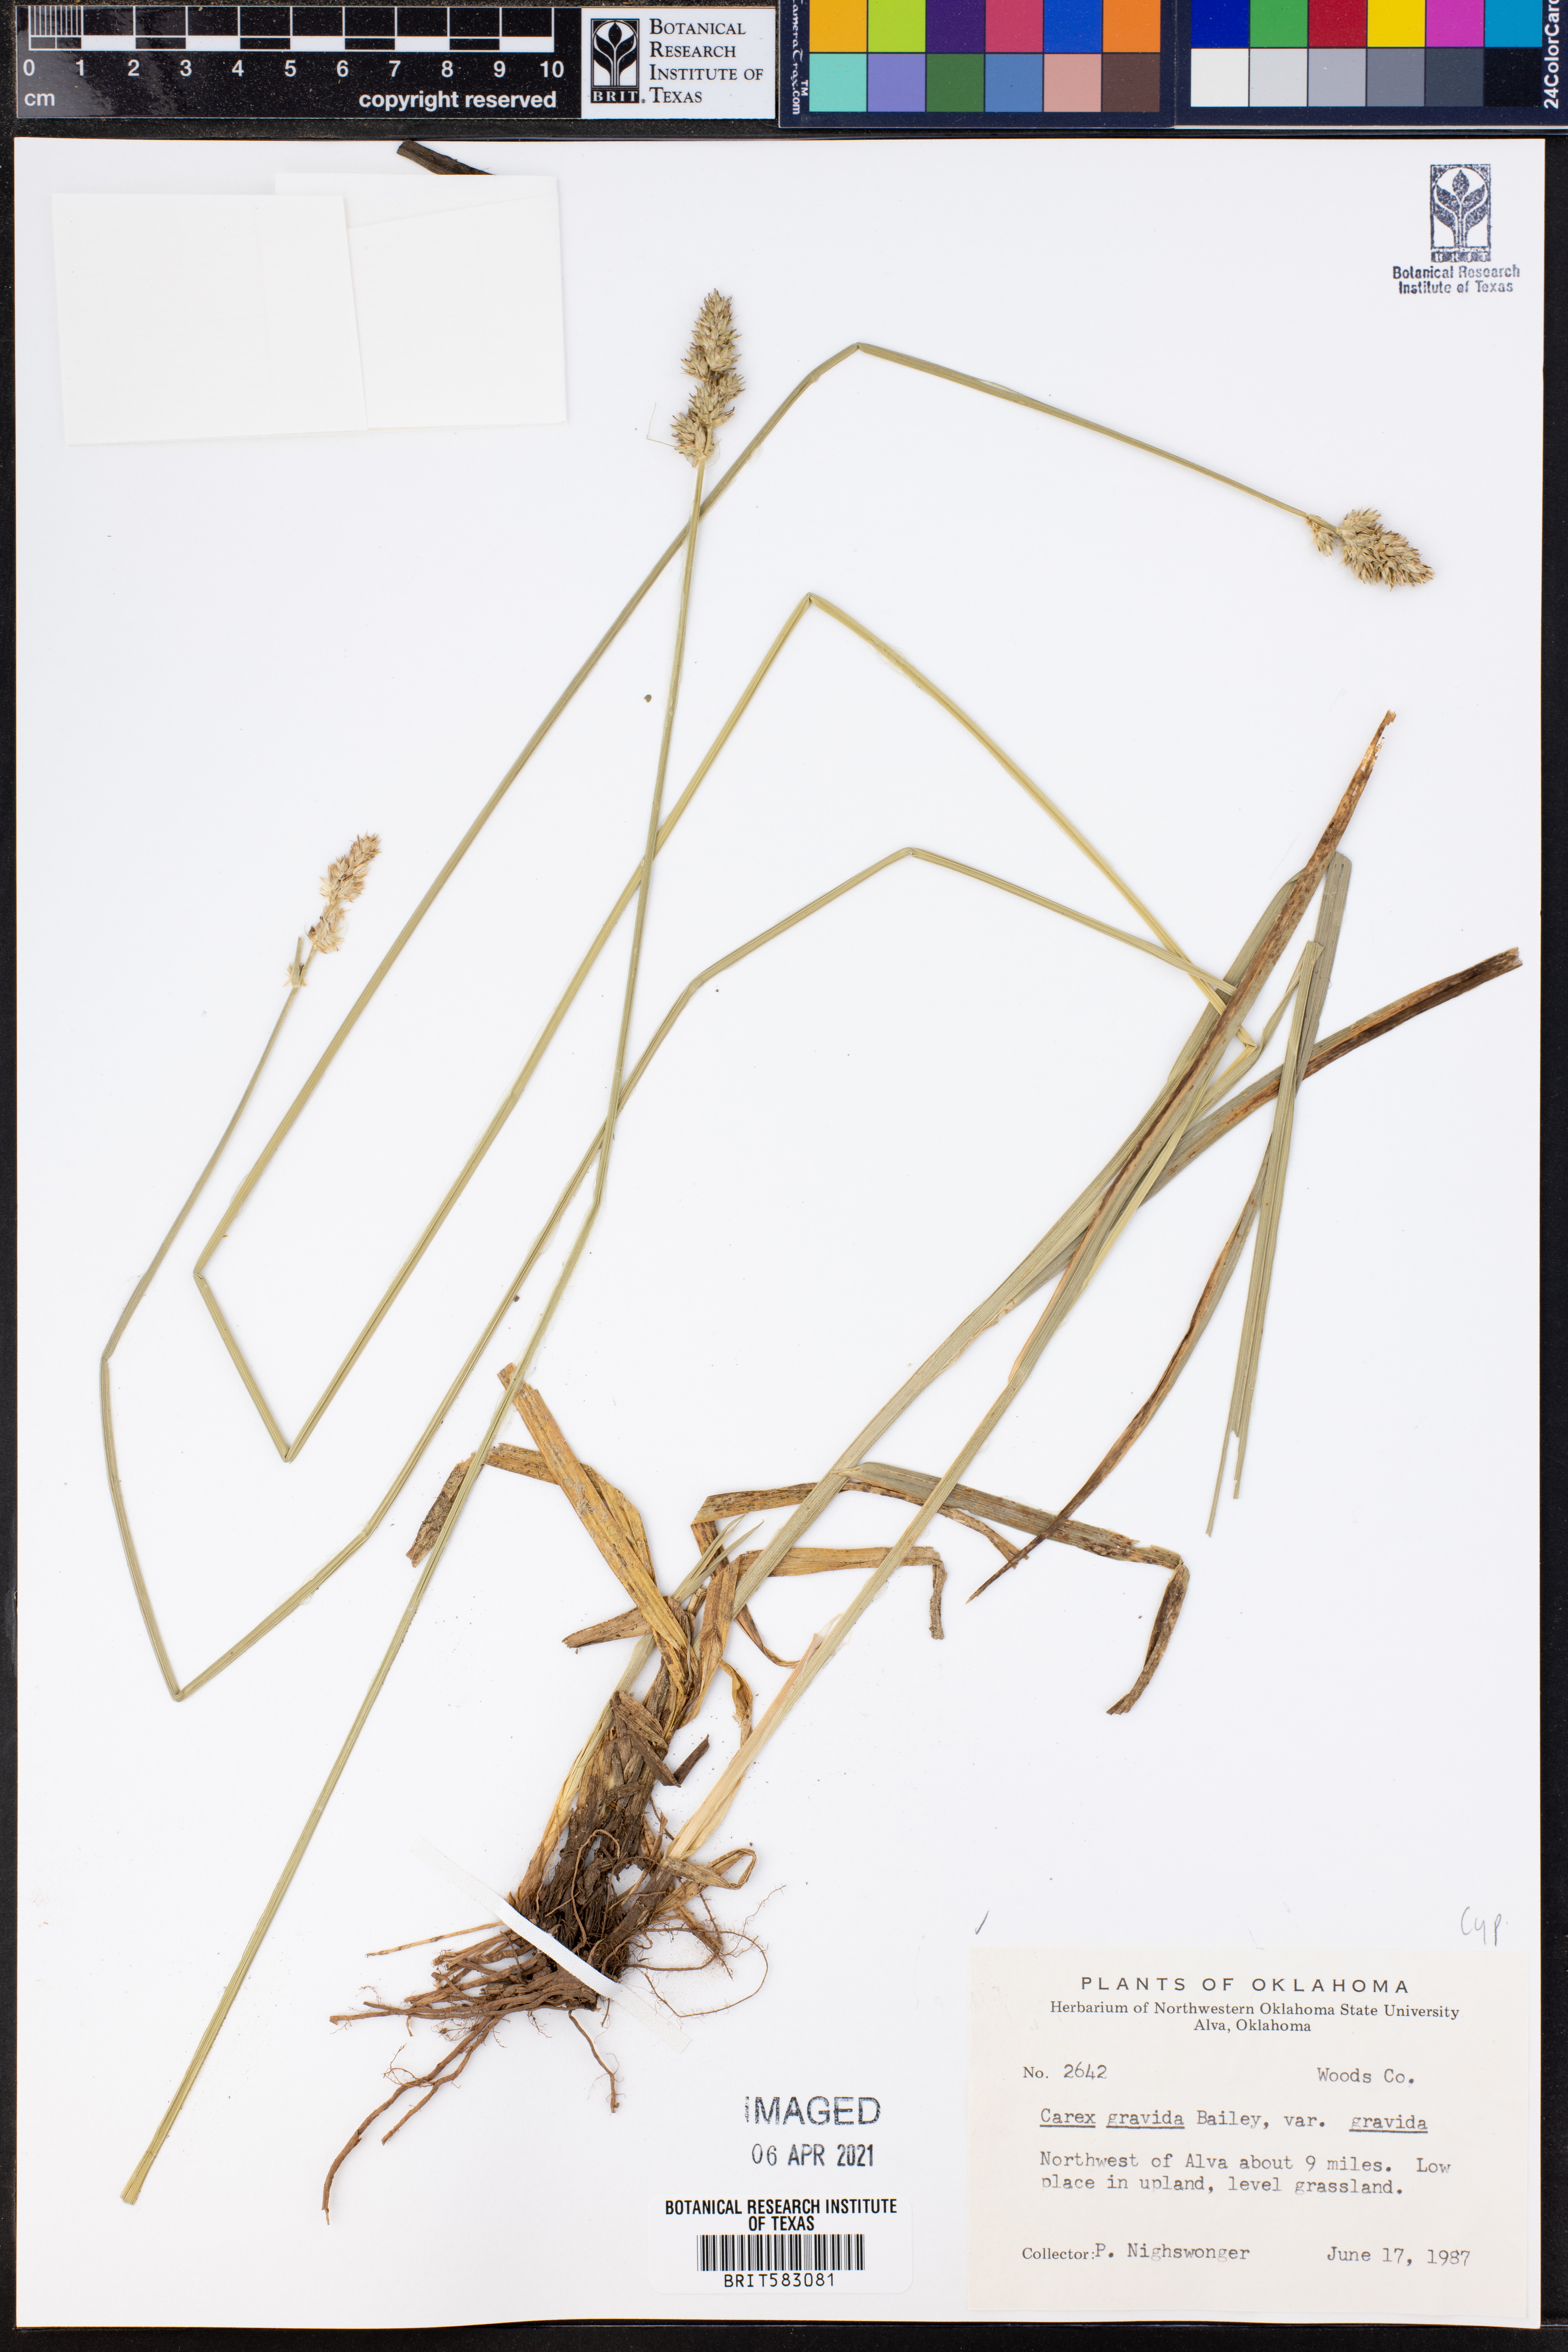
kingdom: Plantae
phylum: Tracheophyta
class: Liliopsida
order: Poales
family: Cyperaceae
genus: Carex
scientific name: Carex gravida
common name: Heavy sedge
